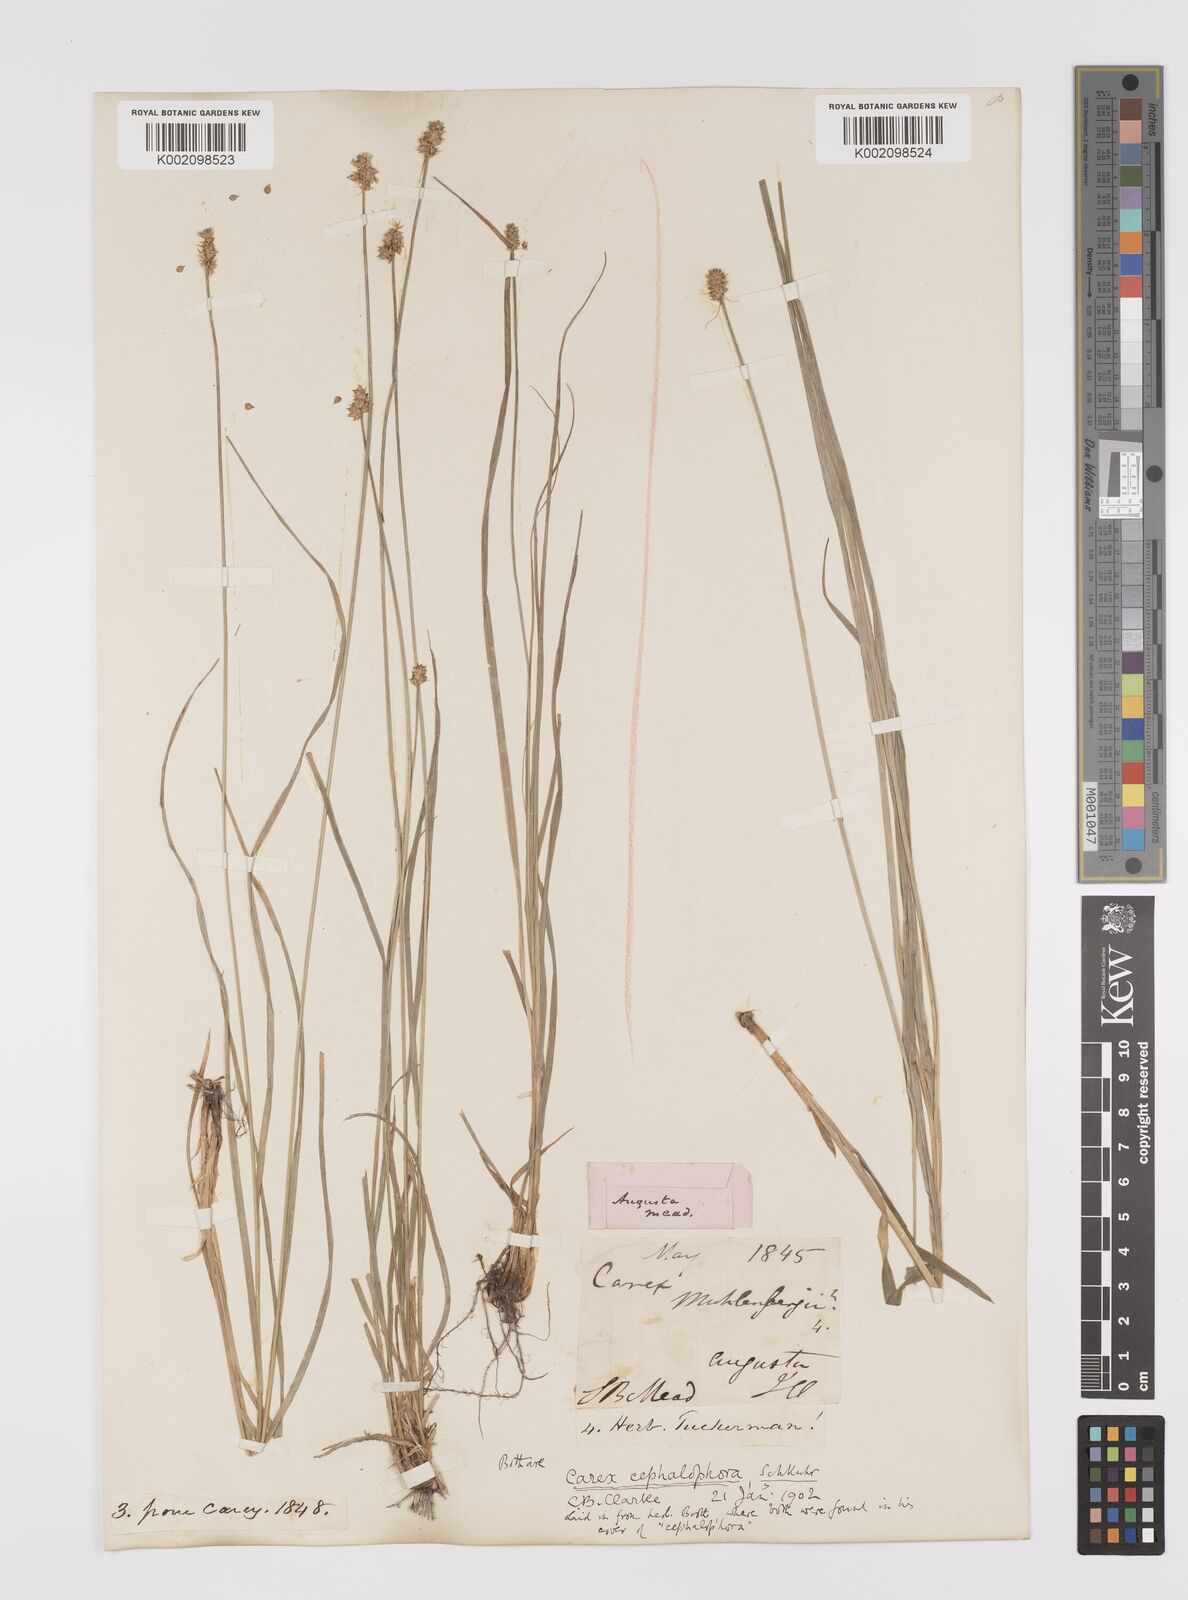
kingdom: Plantae
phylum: Tracheophyta
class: Liliopsida
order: Poales
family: Cyperaceae
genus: Carex
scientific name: Carex cephalophora
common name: Oval-headed sedge
